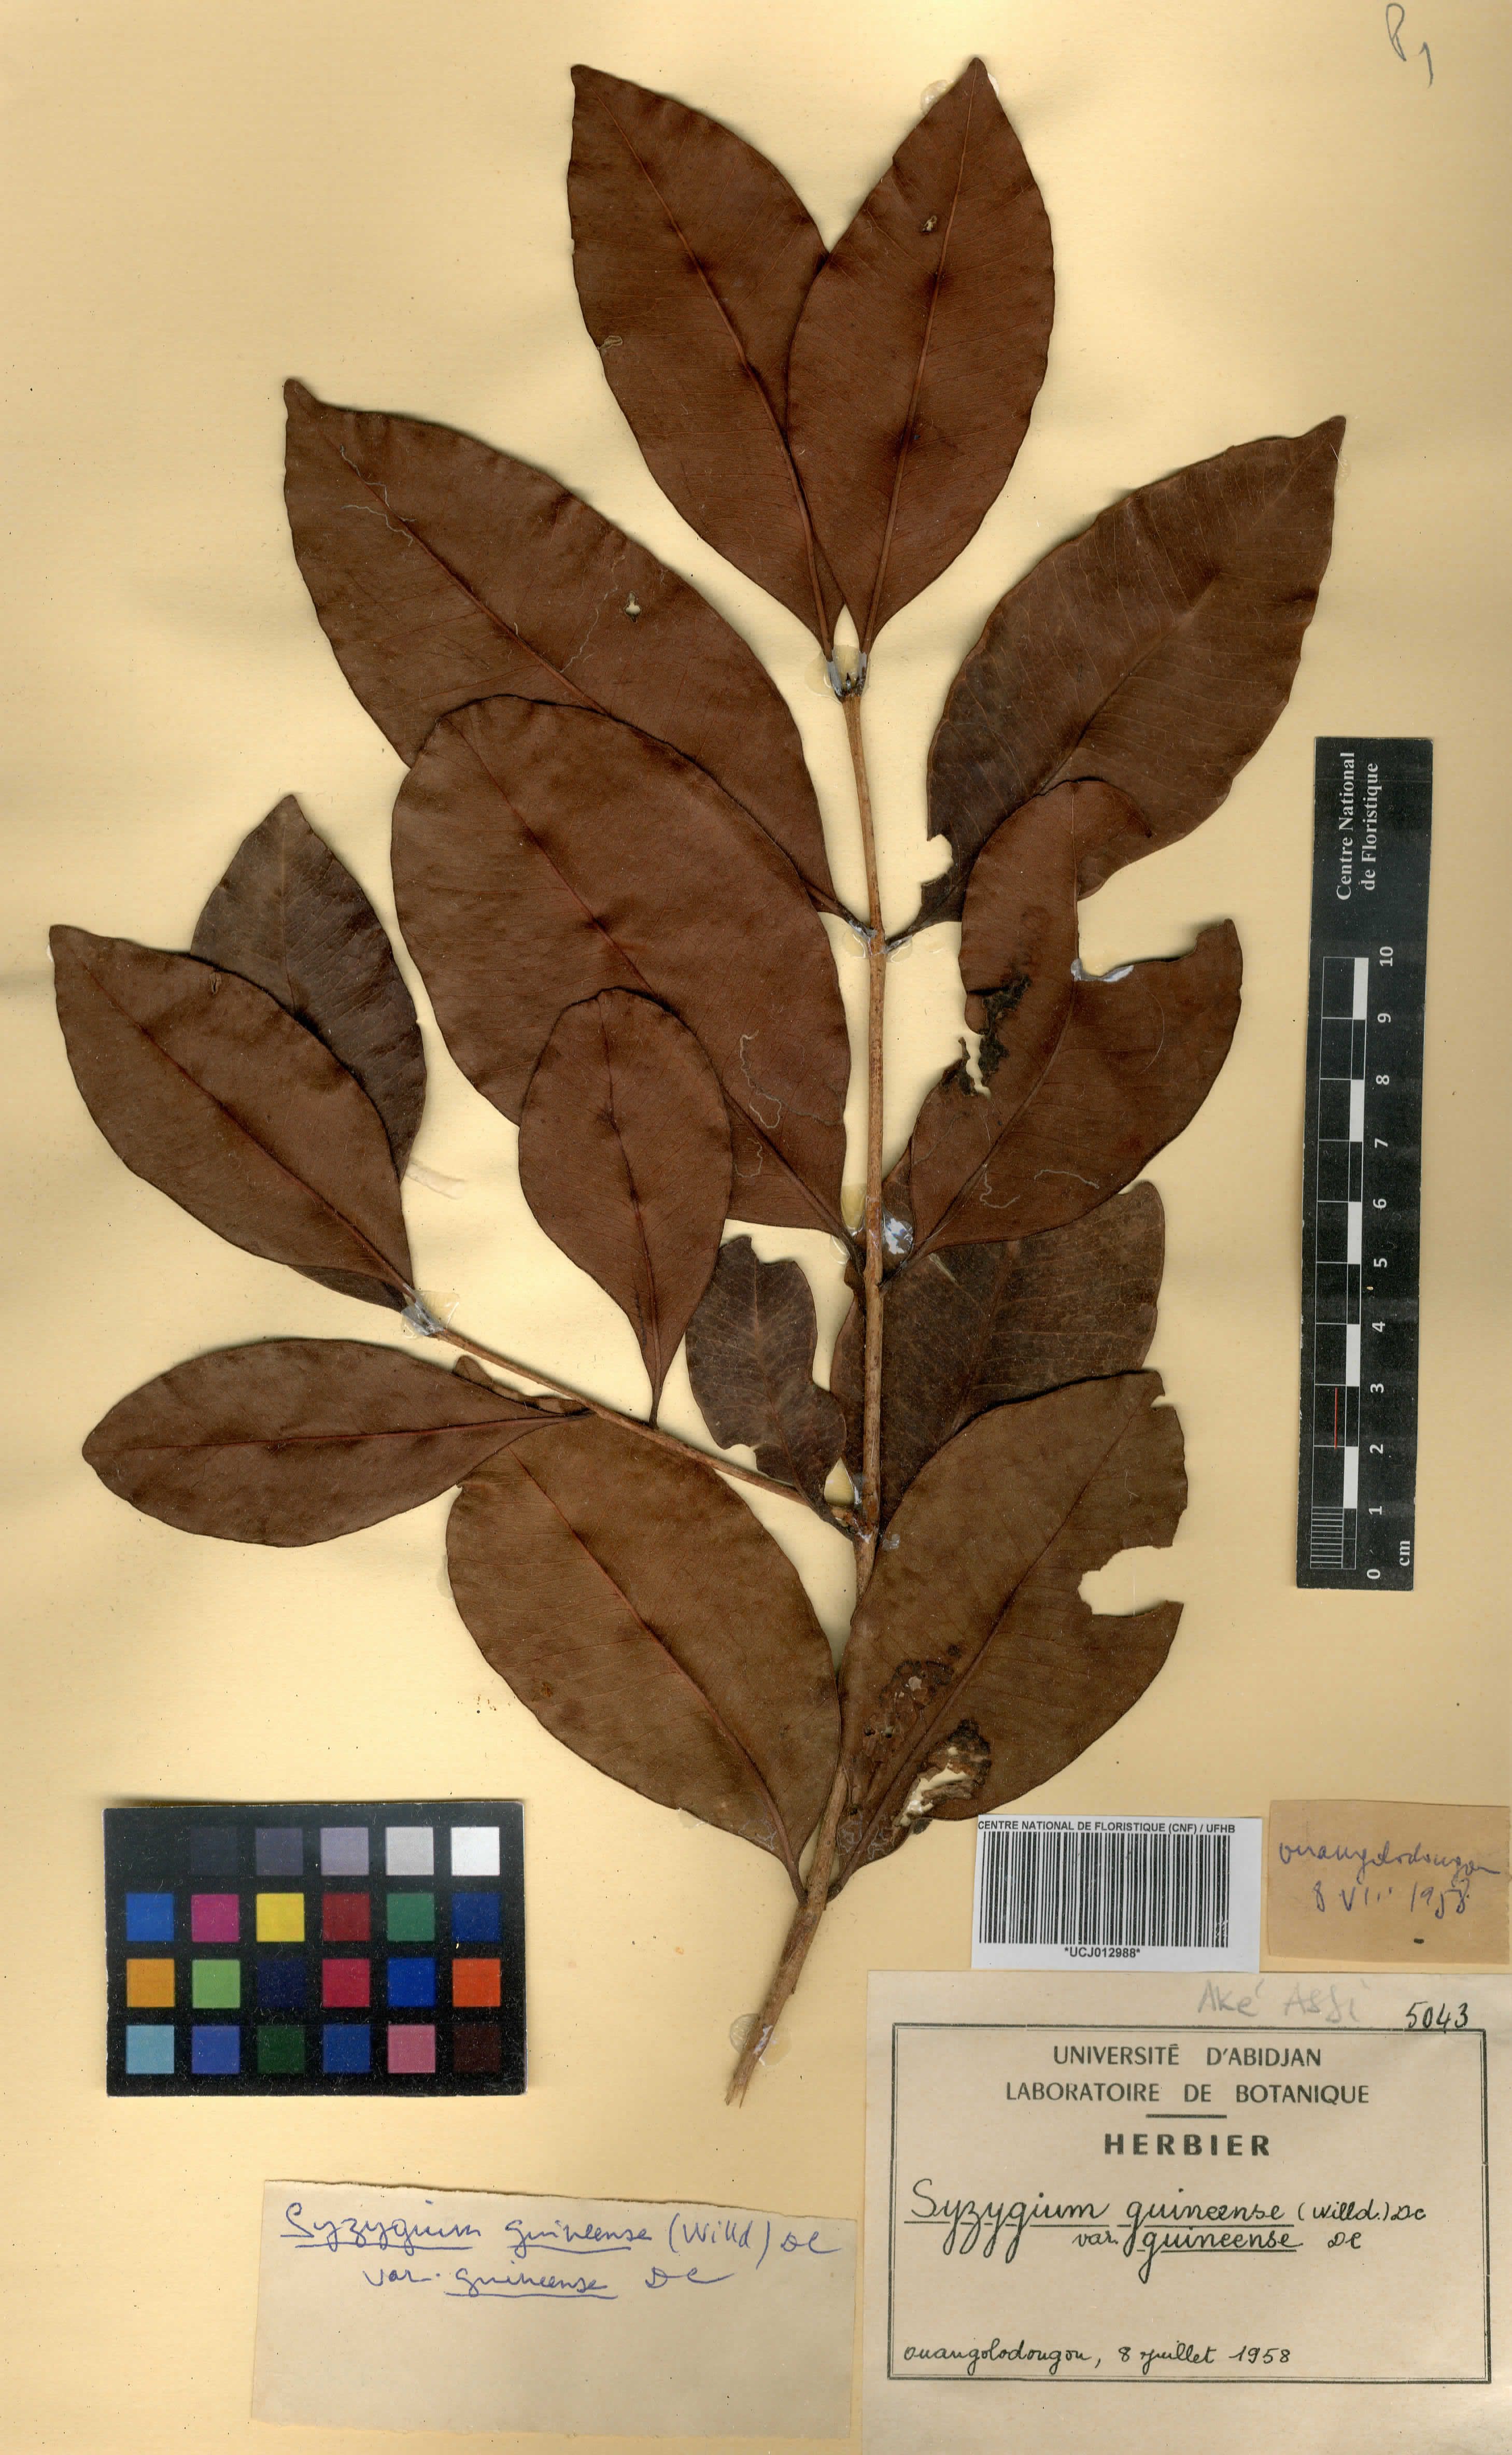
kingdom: Plantae
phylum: Tracheophyta
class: Magnoliopsida
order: Myrtales
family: Myrtaceae
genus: Syzygium
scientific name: Syzygium guineense
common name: Water-pear
